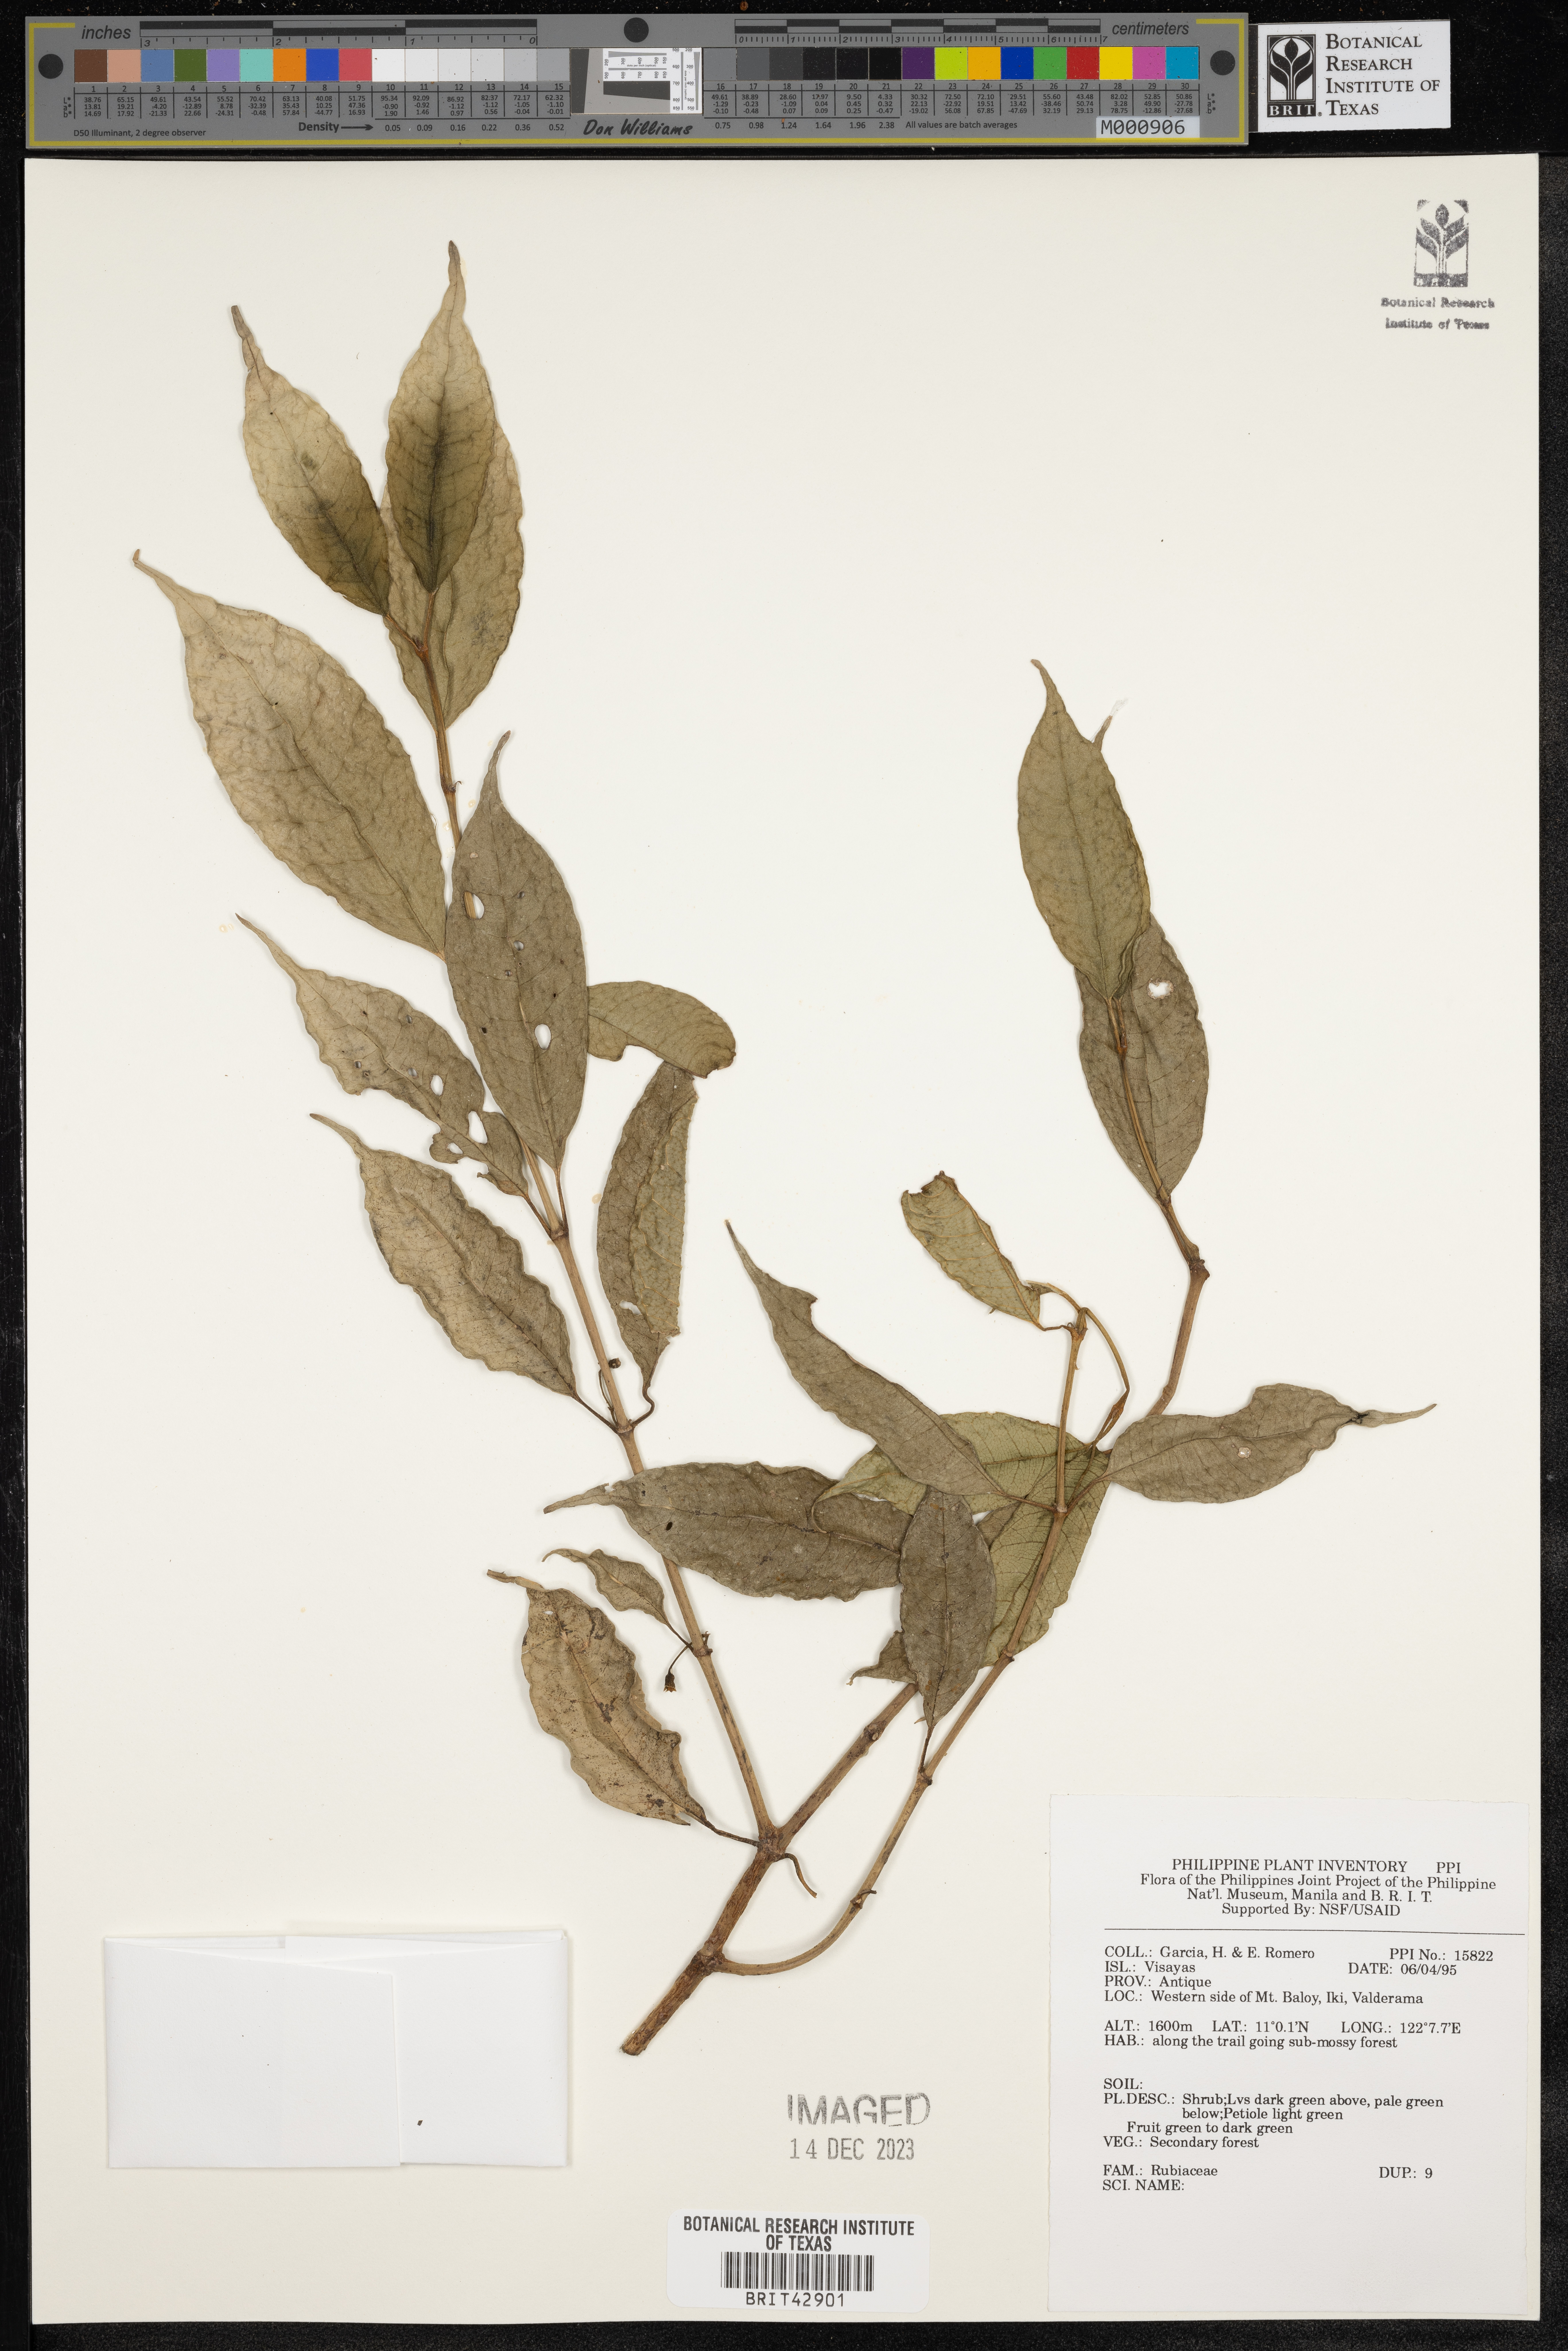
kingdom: Plantae
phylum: Tracheophyta
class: Magnoliopsida
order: Gentianales
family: Rubiaceae
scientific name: Rubiaceae
